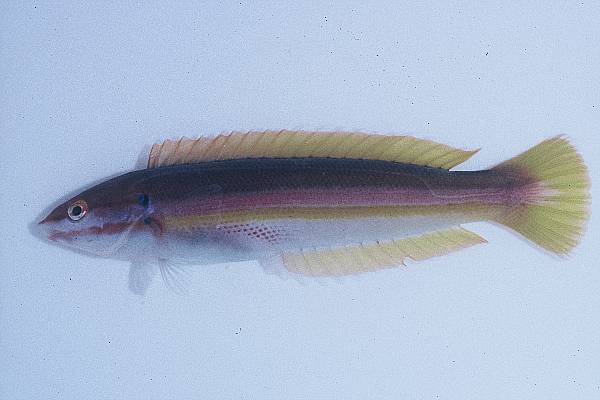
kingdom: Animalia
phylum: Chordata
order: Perciformes
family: Labridae
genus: Coris
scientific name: Coris julis
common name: Rainbow wrasse
